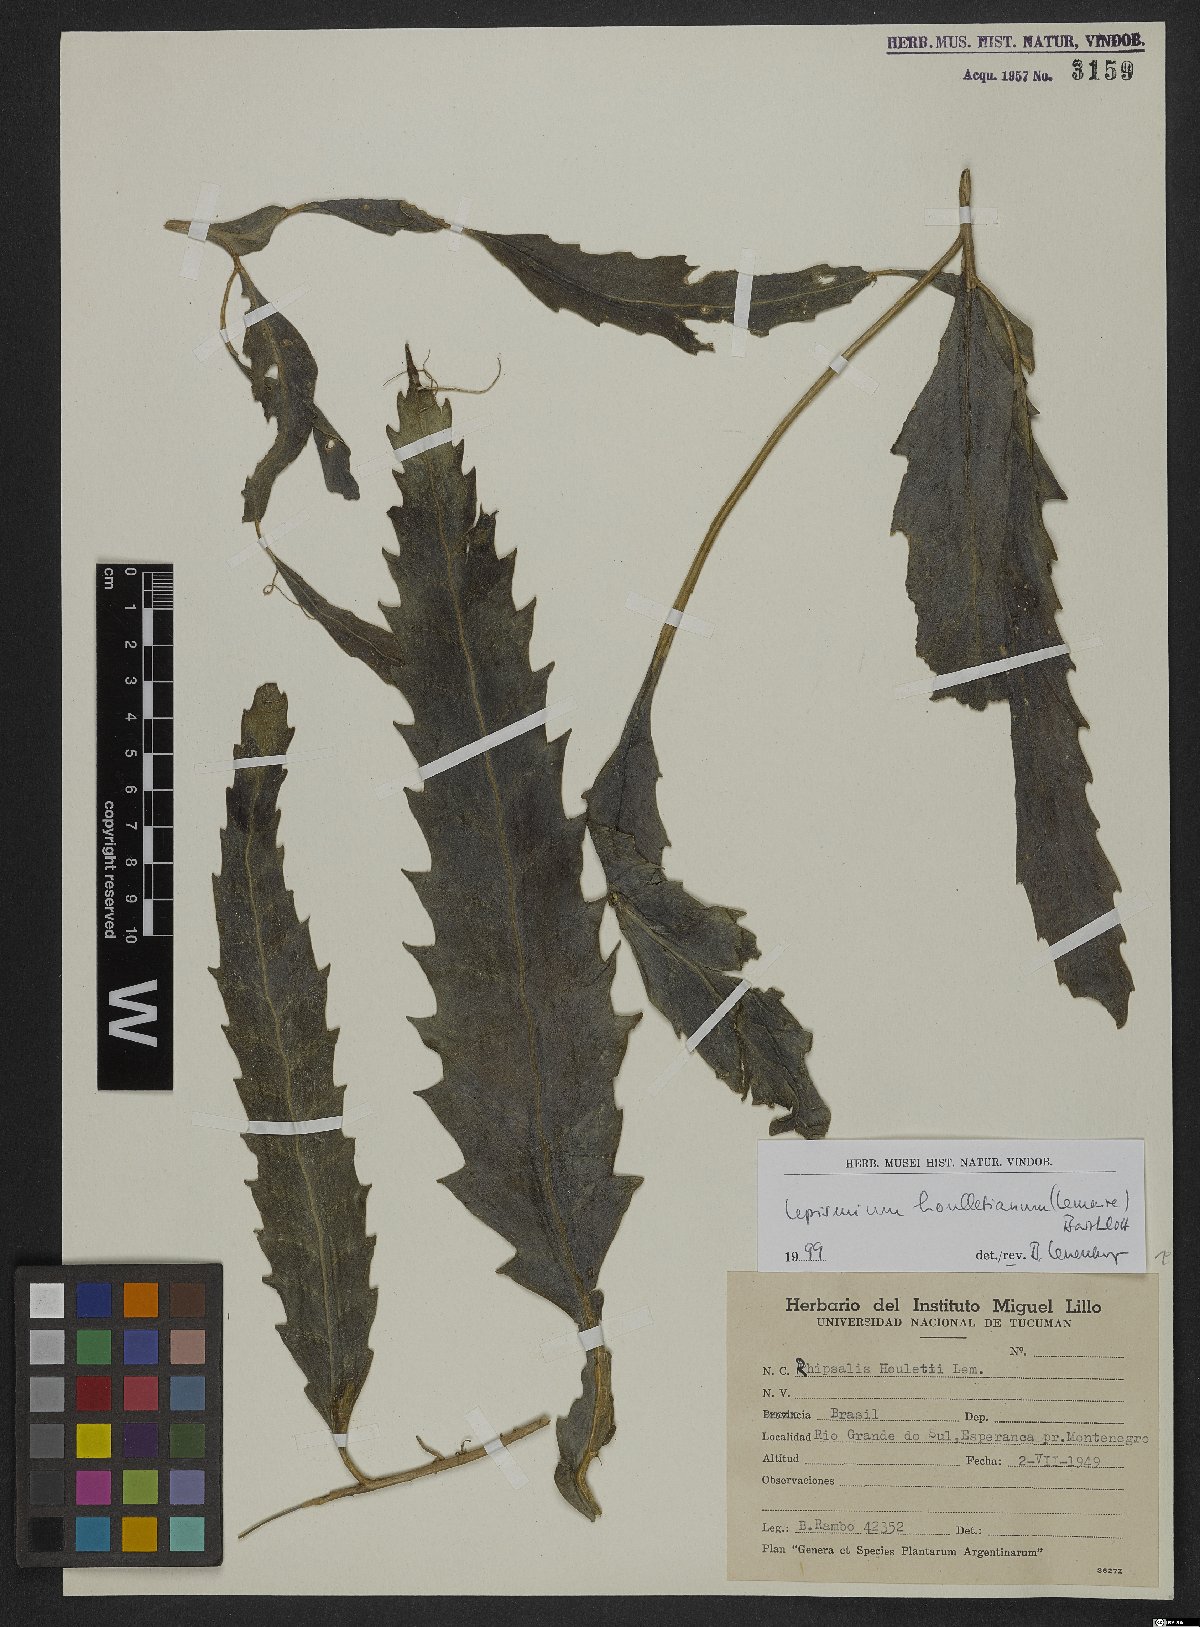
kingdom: Plantae
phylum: Tracheophyta
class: Magnoliopsida
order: Caryophyllales
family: Cactaceae
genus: Lepismium
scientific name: Lepismium houlletianum
